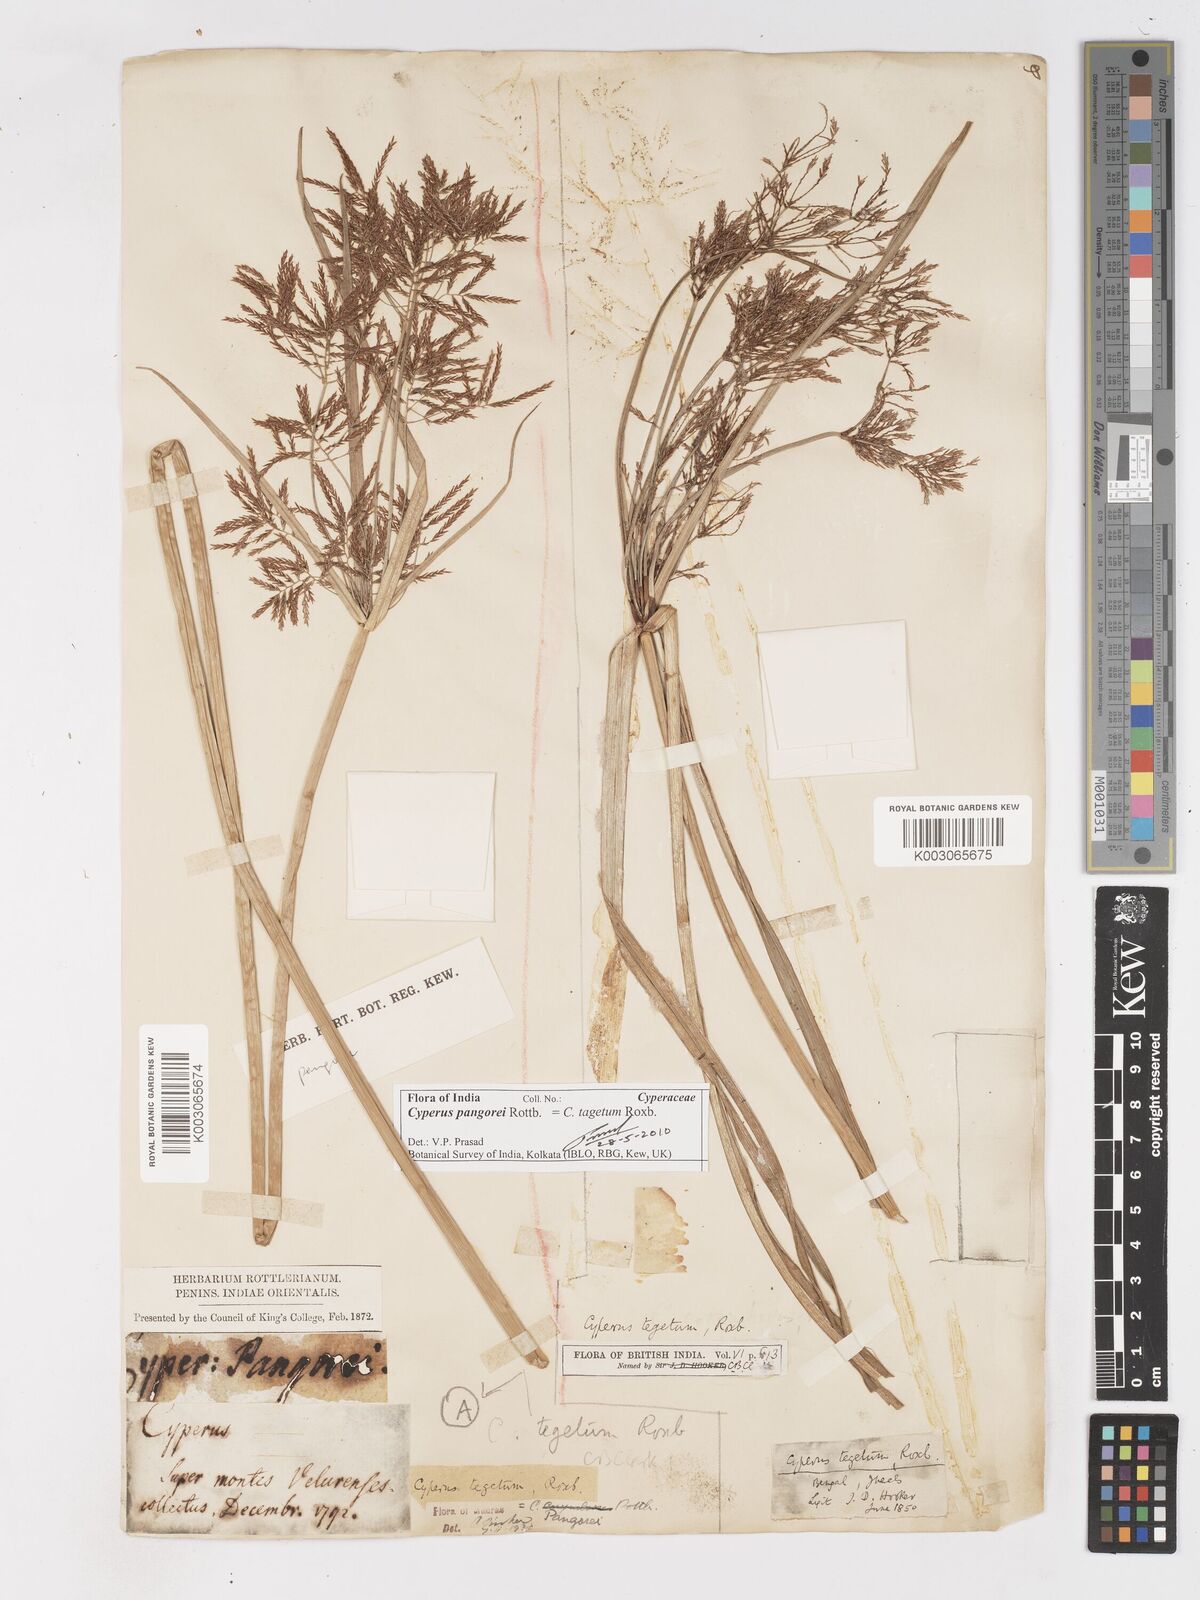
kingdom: Plantae
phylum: Tracheophyta
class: Liliopsida
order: Poales
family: Cyperaceae
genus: Cyperus
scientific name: Cyperus pangorei
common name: Mat sedge
